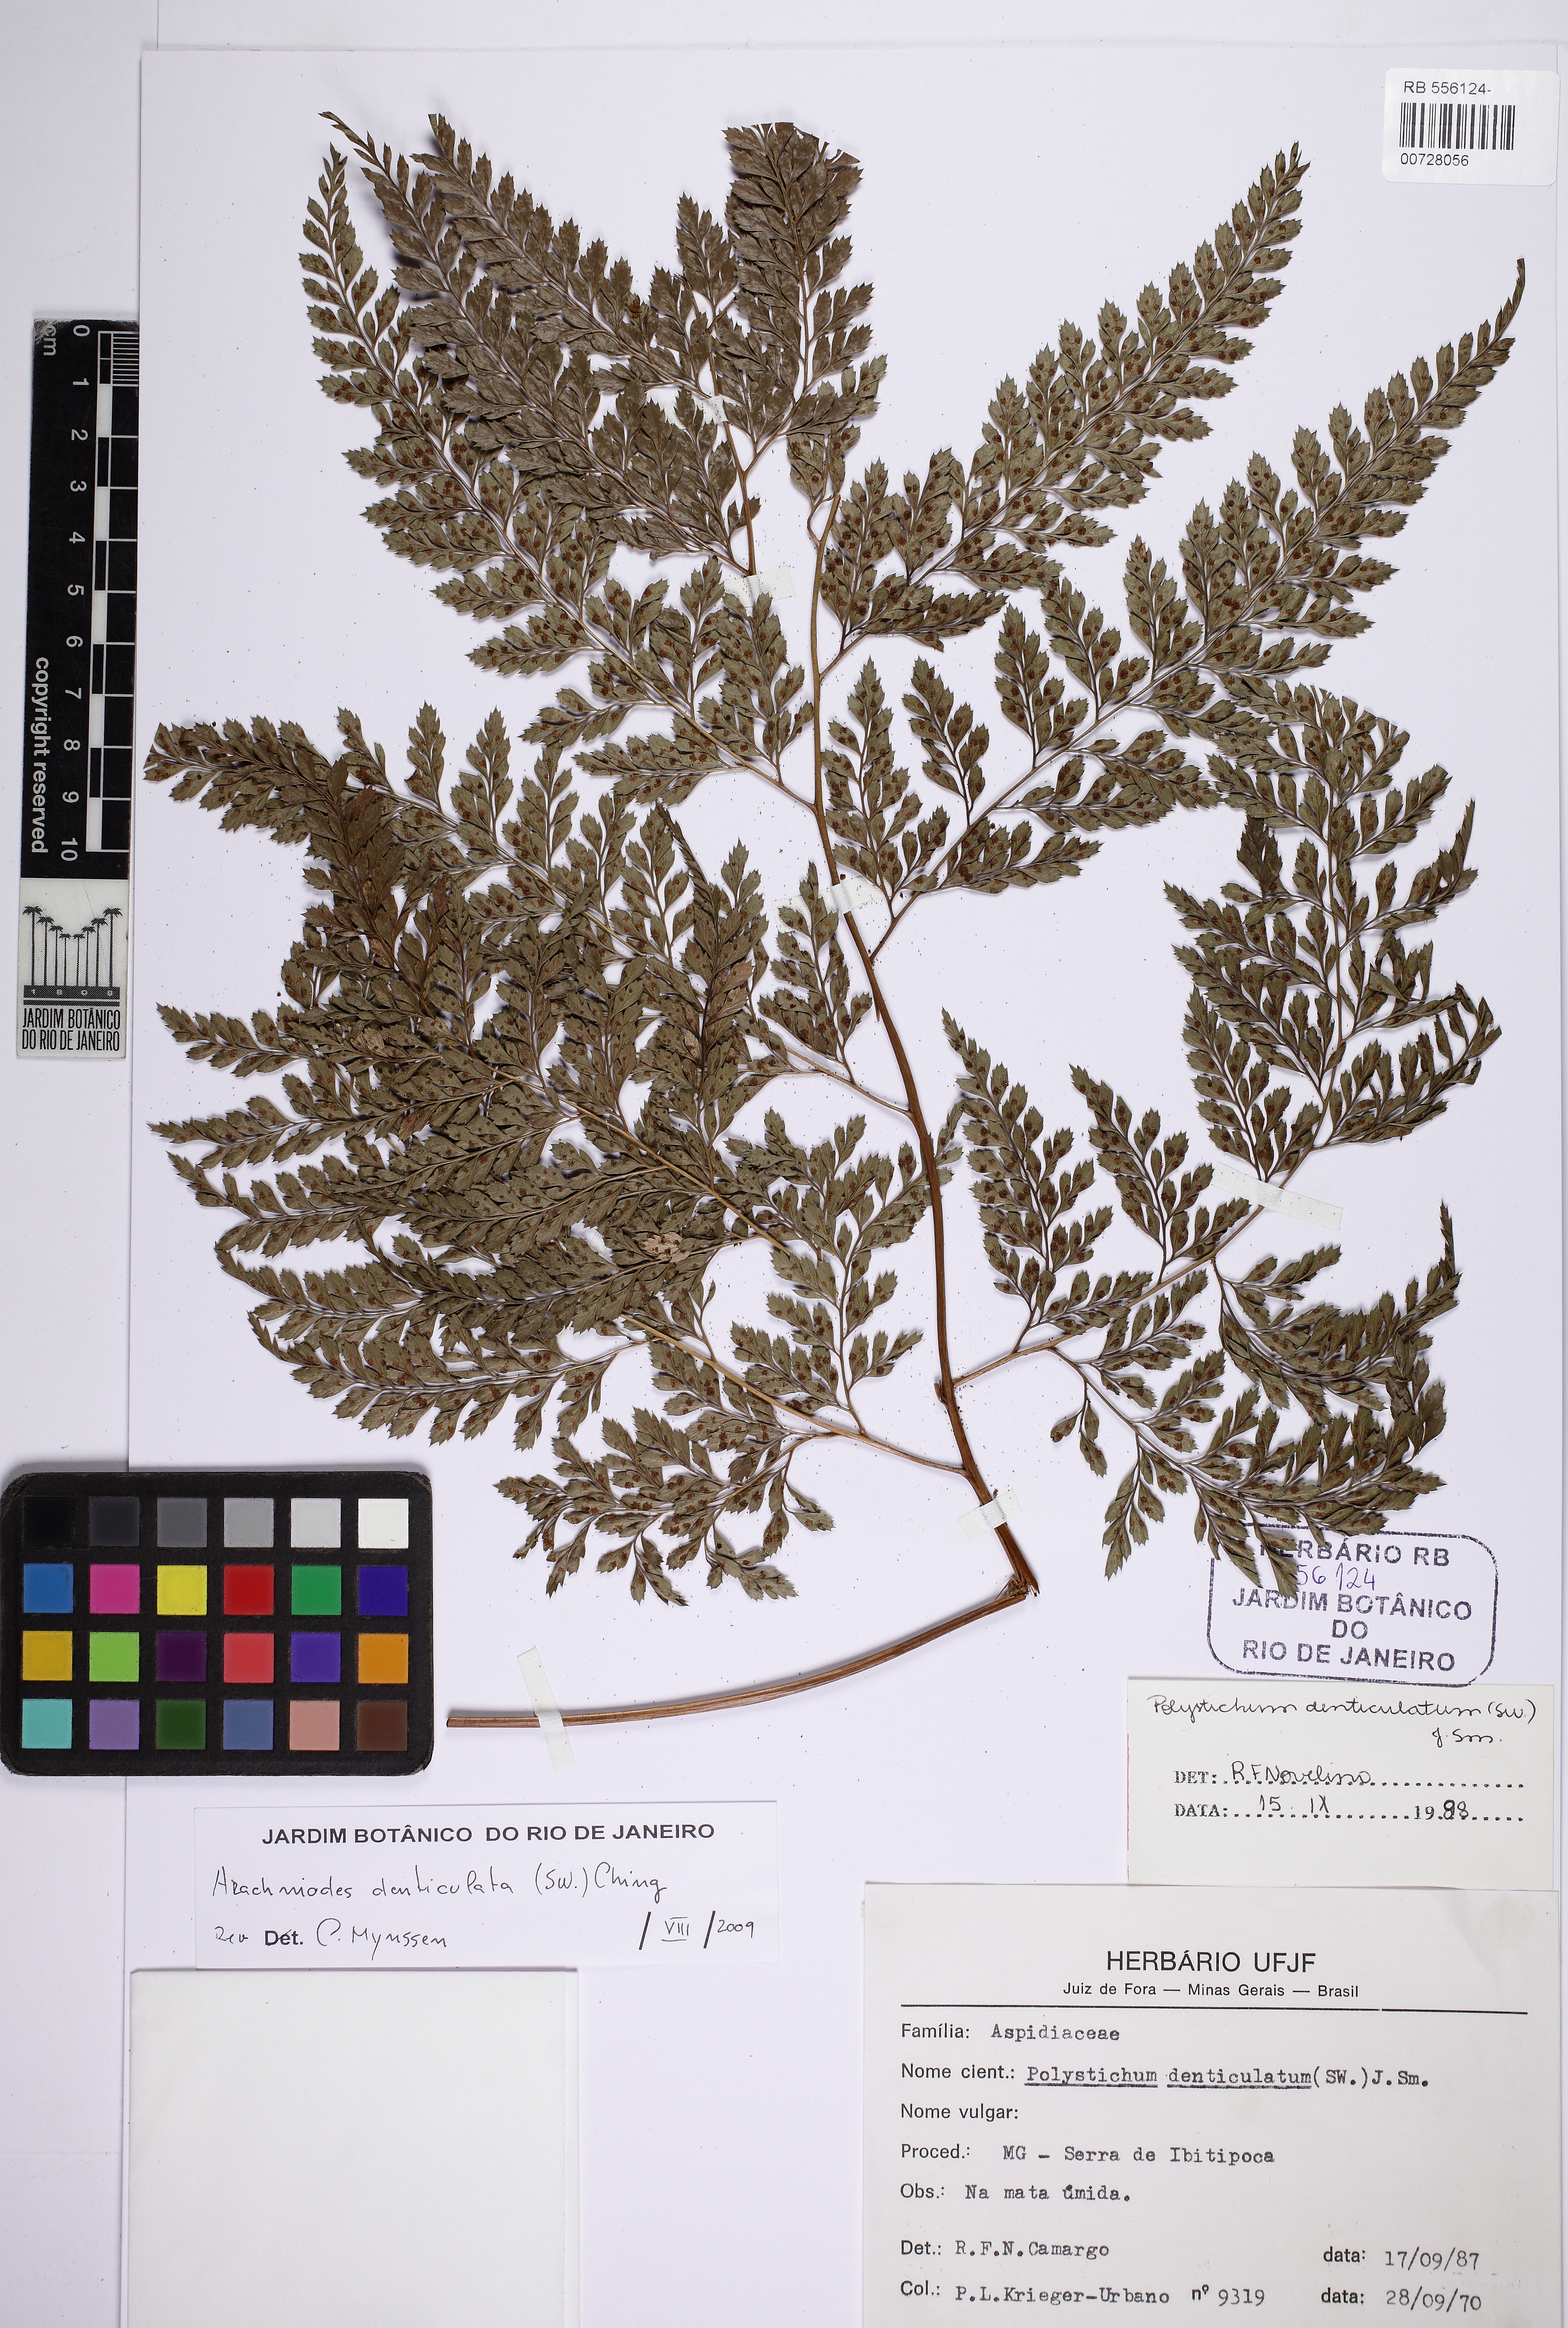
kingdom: Plantae
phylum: Tracheophyta
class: Polypodiopsida
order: Polypodiales
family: Dryopteridaceae
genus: Arachniodes
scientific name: Arachniodes denticulata
